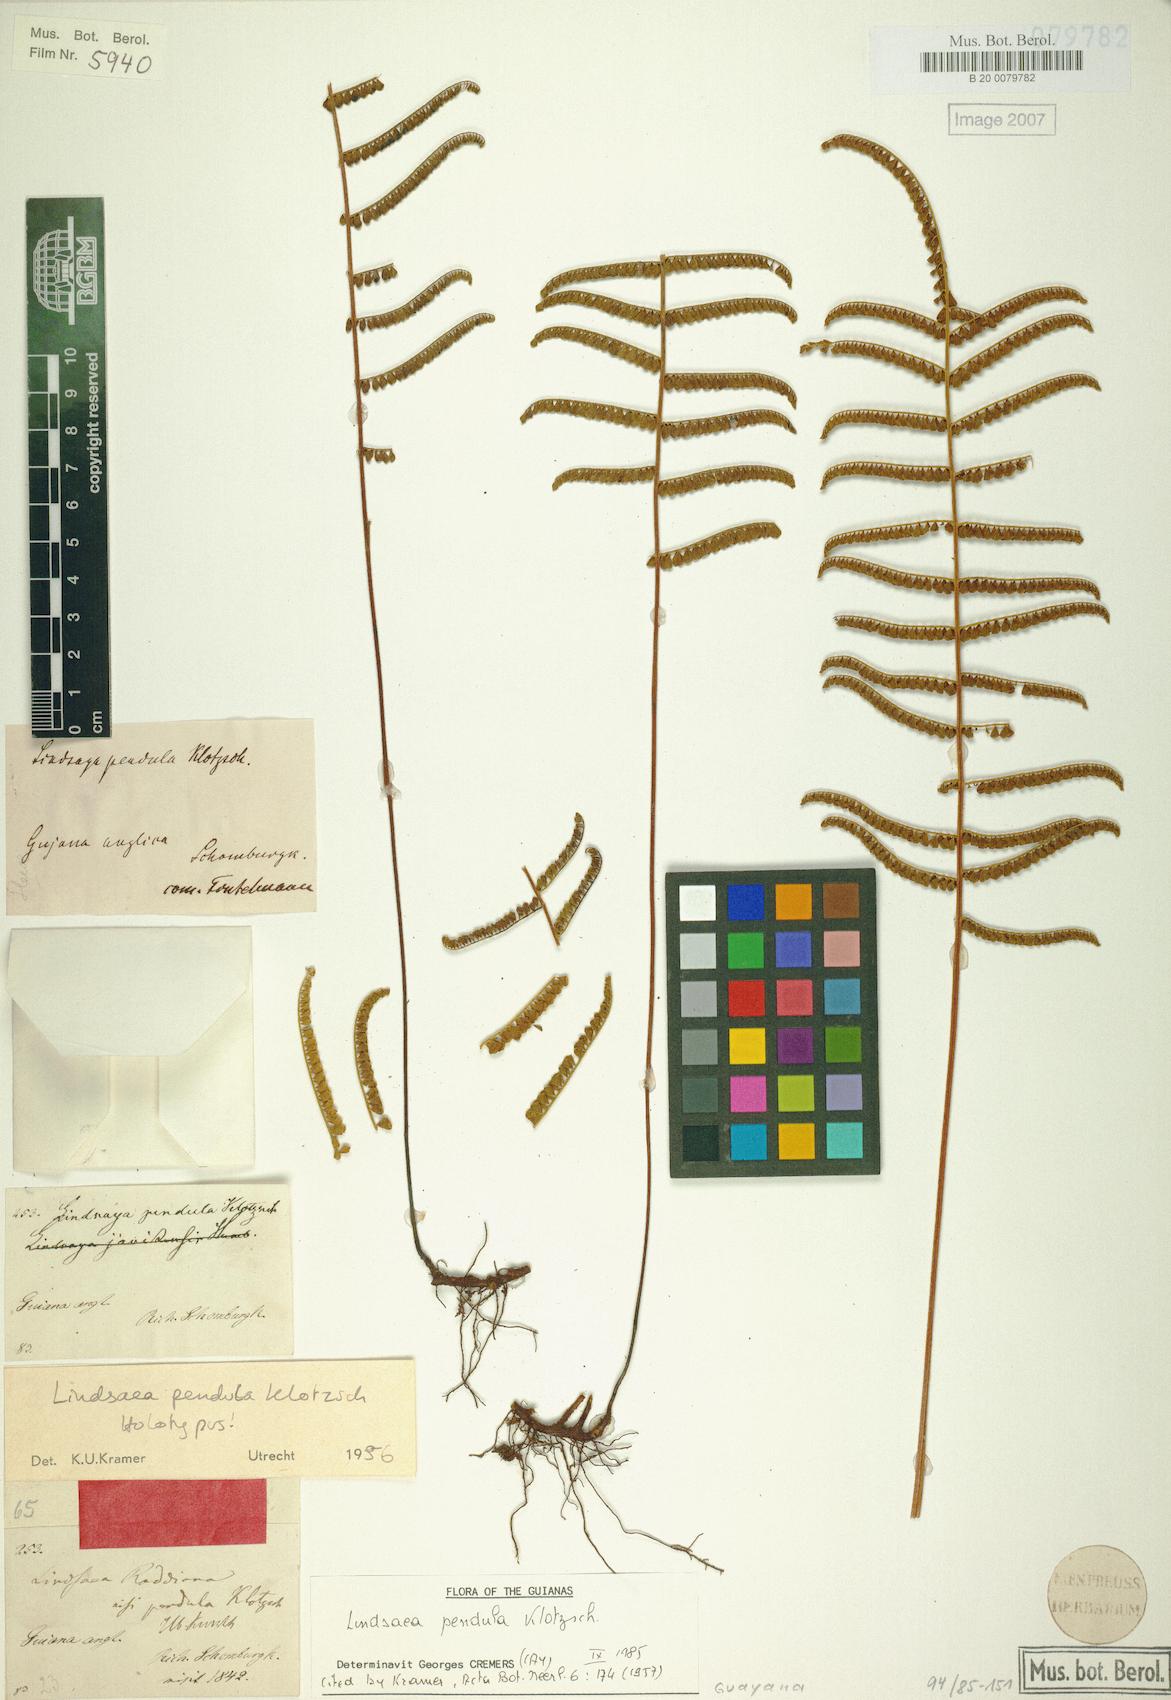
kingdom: Plantae
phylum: Tracheophyta
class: Polypodiopsida
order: Polypodiales
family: Lindsaeaceae
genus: Lindsaea
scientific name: Lindsaea pendula
